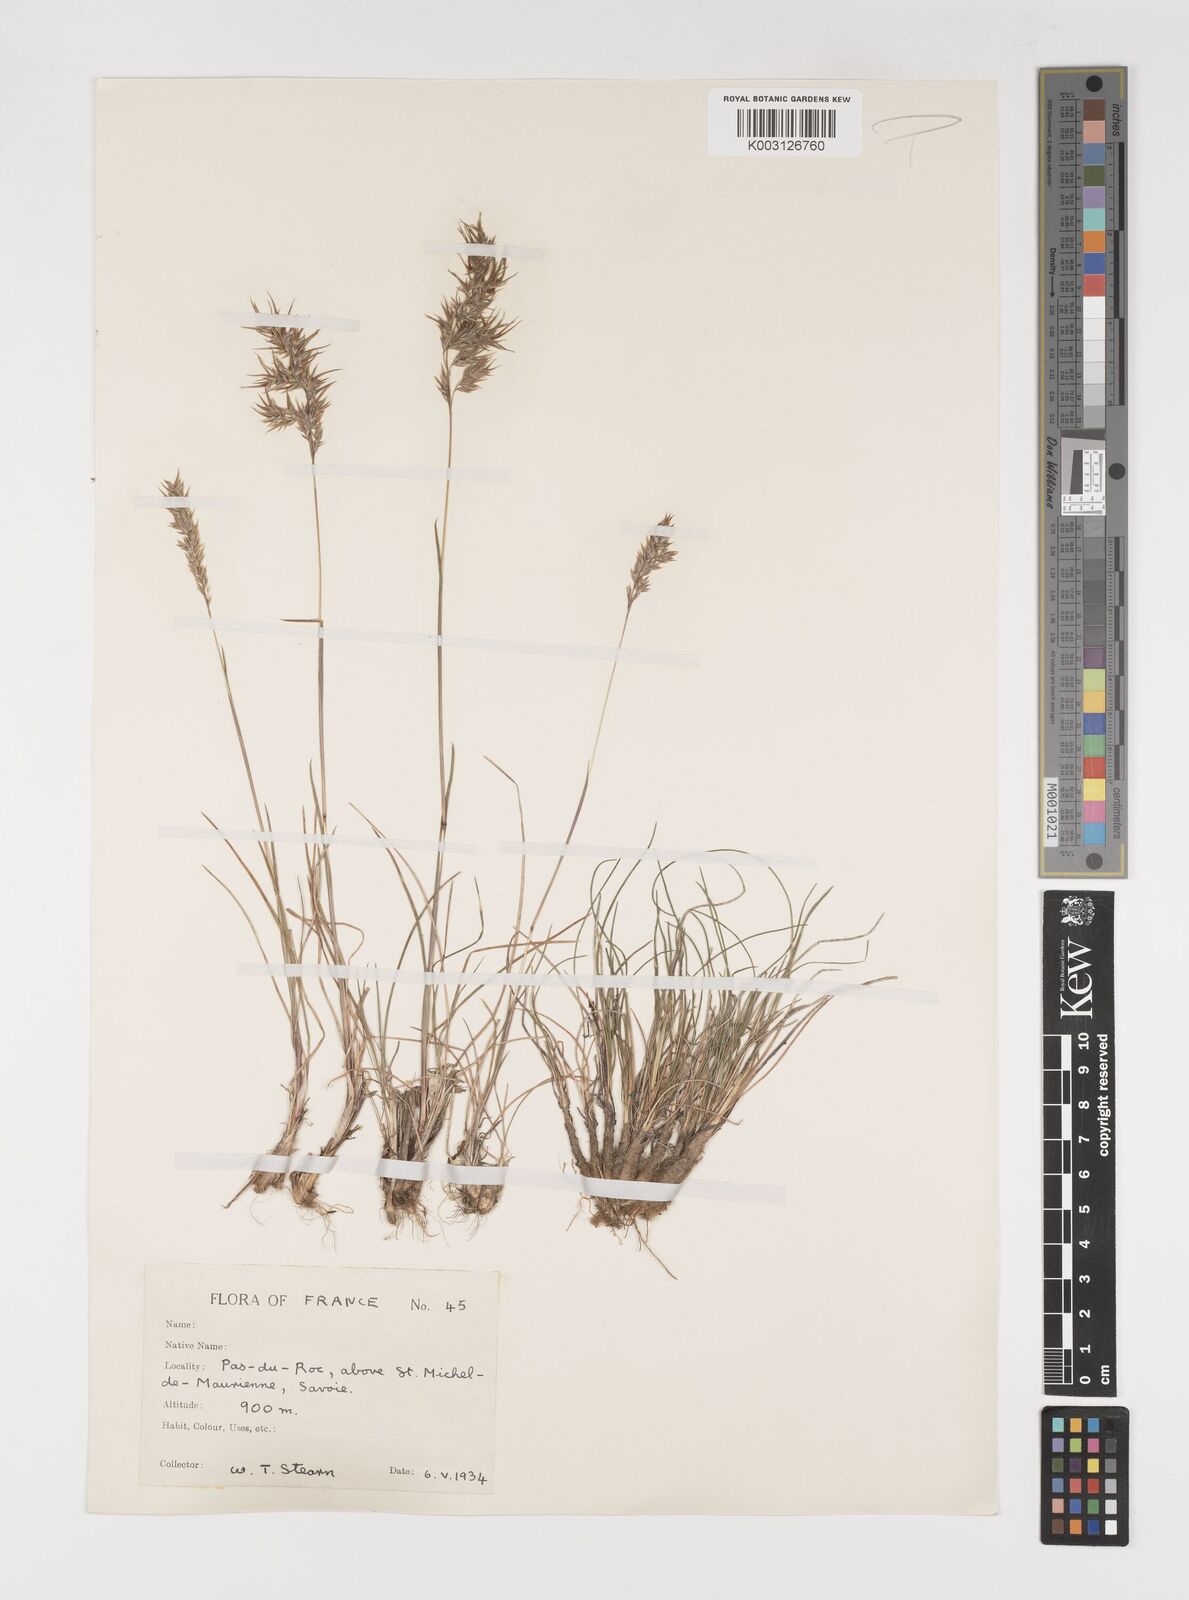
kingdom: Plantae
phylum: Tracheophyta
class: Liliopsida
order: Poales
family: Poaceae
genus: Poa
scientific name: Poa bulbosa
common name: Bulbous bluegrass
